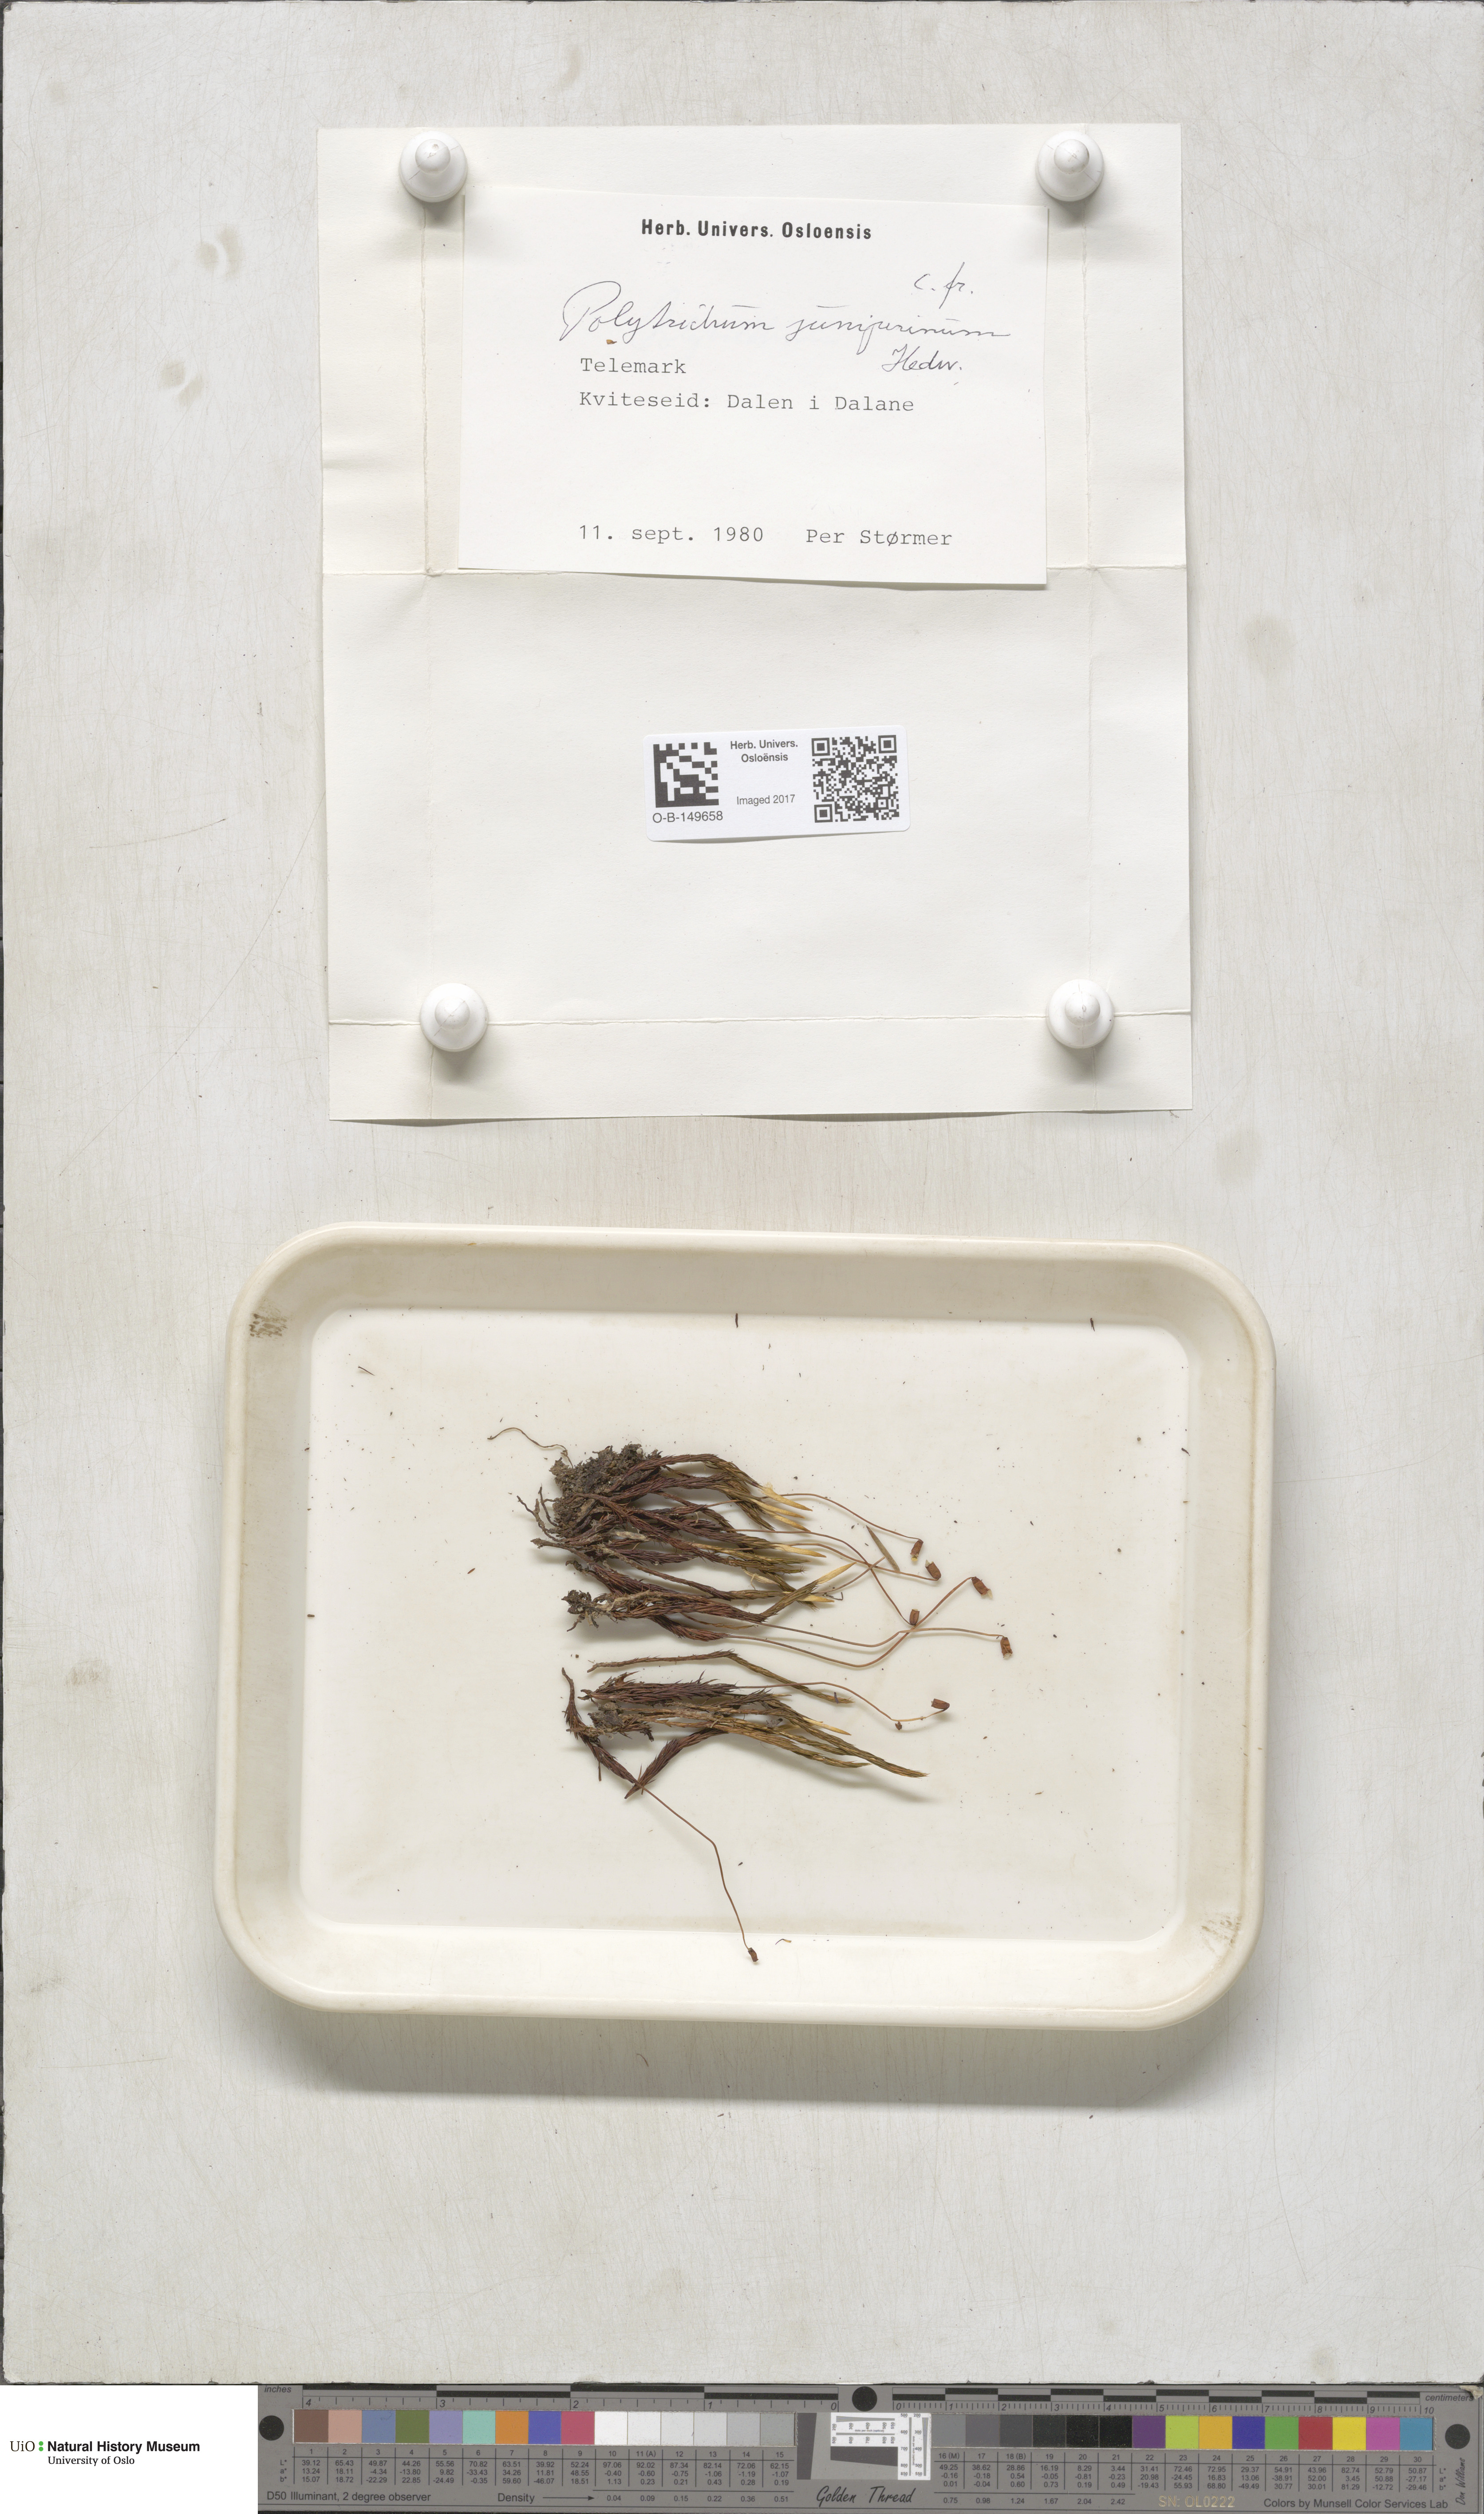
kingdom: Plantae
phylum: Bryophyta
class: Polytrichopsida
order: Polytrichales
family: Polytrichaceae
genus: Polytrichum
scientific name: Polytrichum juniperinum
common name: Juniper haircap moss
